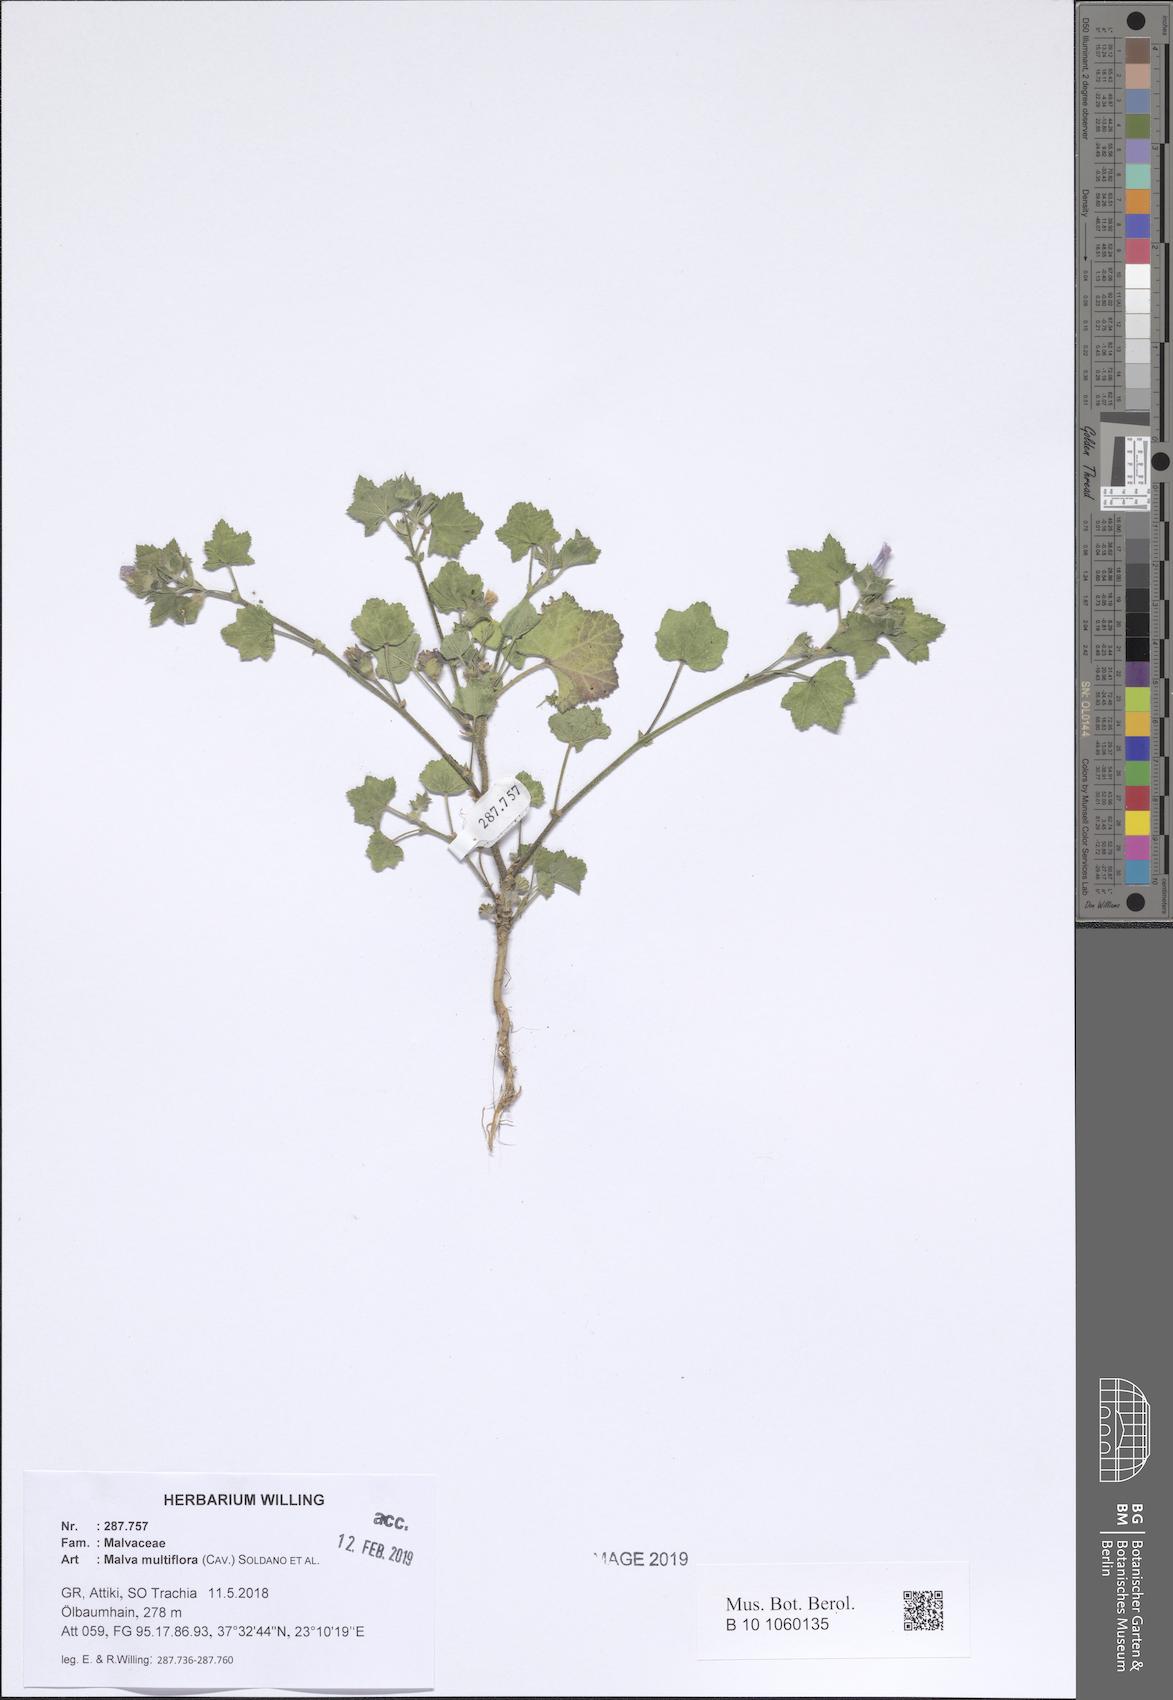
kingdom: Plantae
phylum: Tracheophyta
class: Magnoliopsida
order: Malvales
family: Malvaceae
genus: Malva
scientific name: Malva multiflora
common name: Cheeseweed
